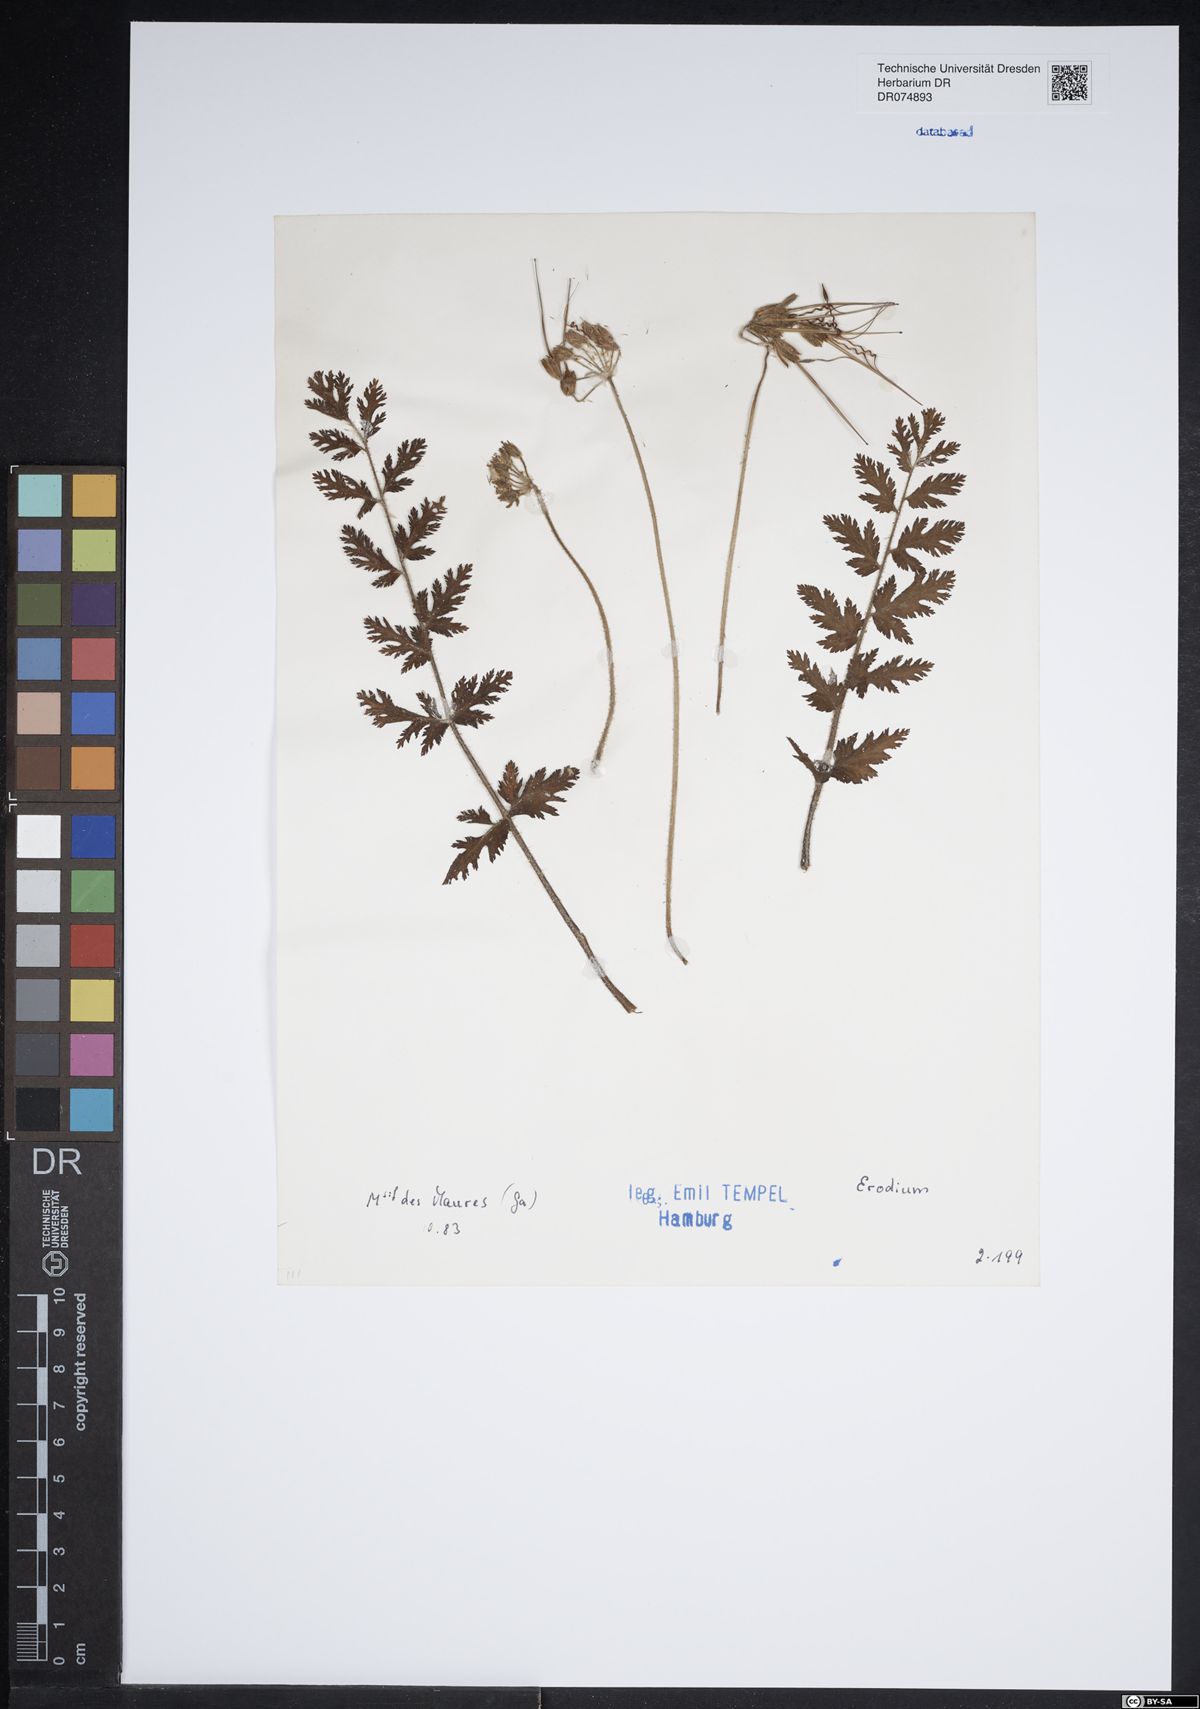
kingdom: Plantae
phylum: Tracheophyta
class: Magnoliopsida
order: Geraniales
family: Geraniaceae
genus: Erodium
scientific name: Erodium
